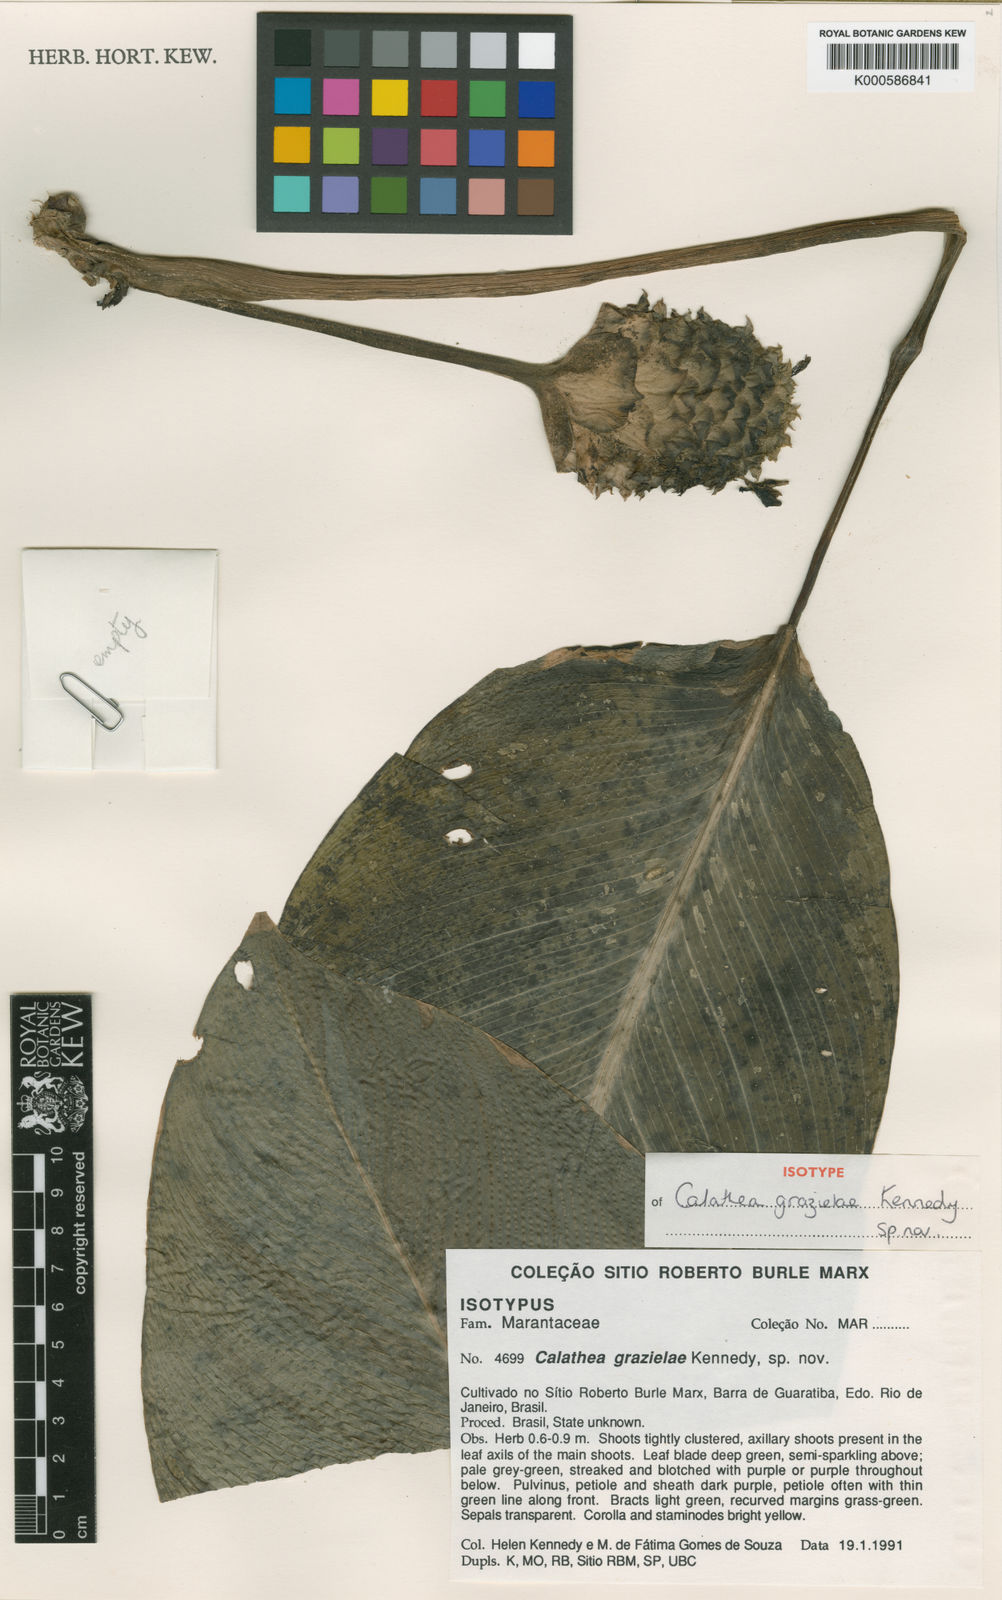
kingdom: Plantae
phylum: Tracheophyta
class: Liliopsida
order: Zingiberales
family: Marantaceae
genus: Goeppertia
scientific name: Goeppertia grazielae
